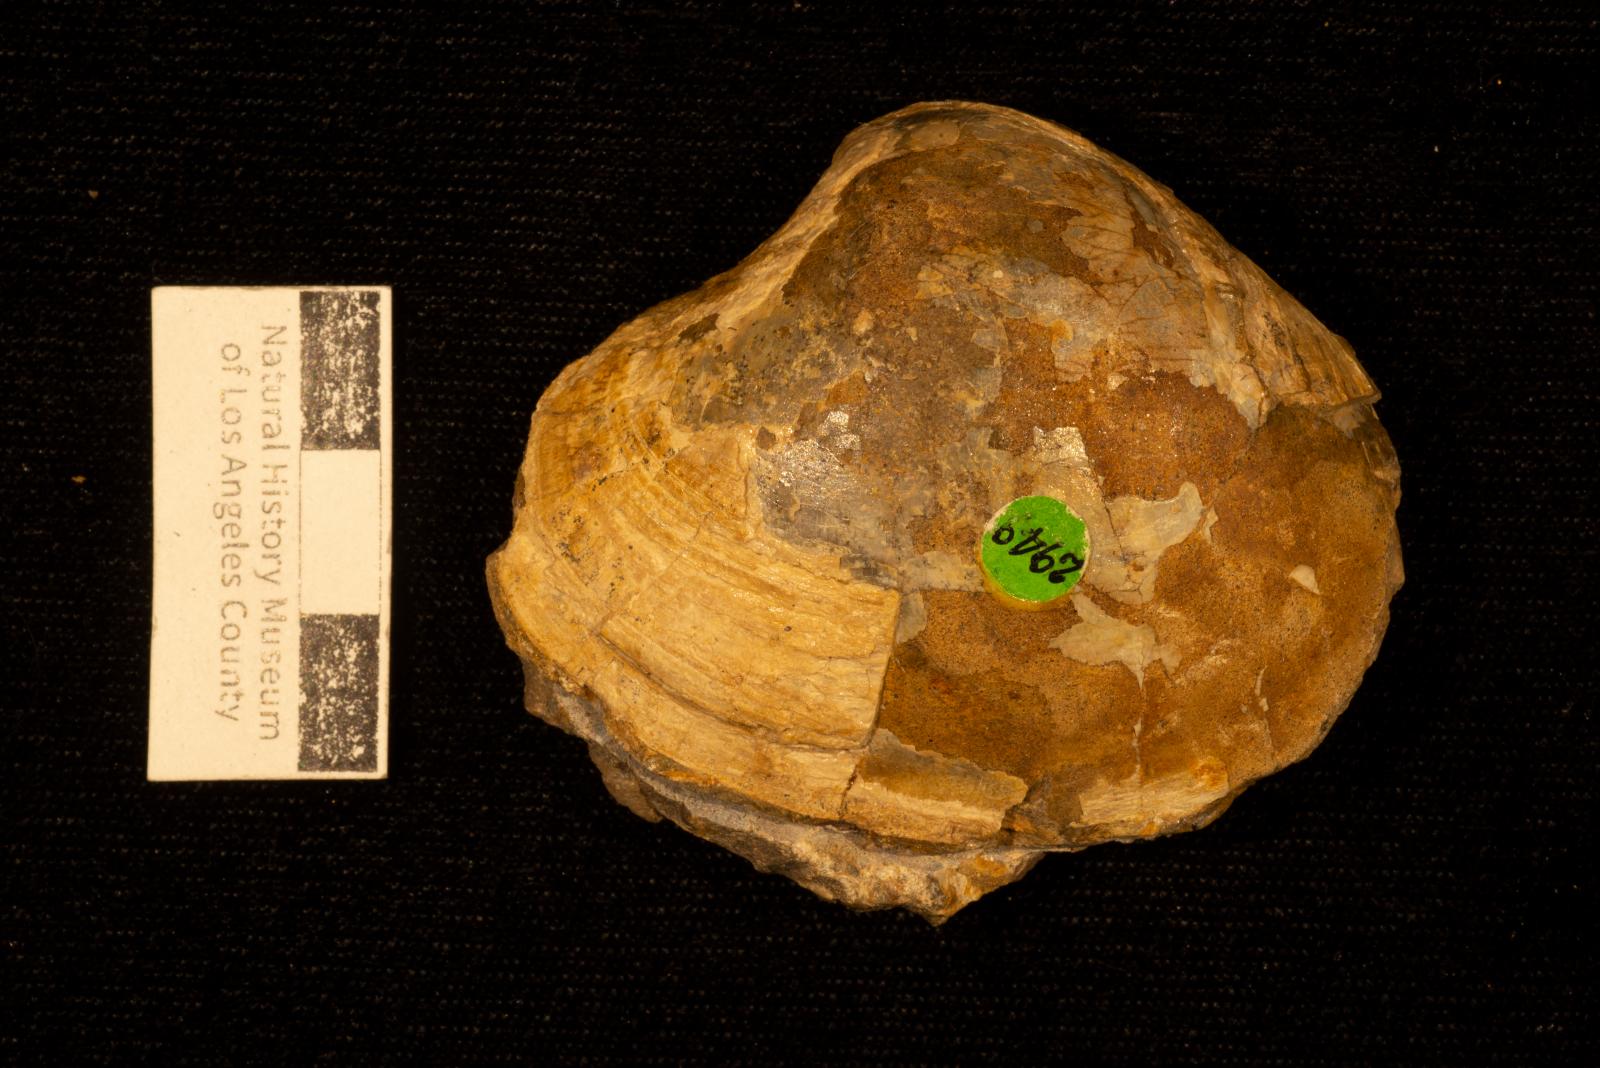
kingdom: Animalia
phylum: Mollusca
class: Bivalvia
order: Venerida
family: Veneridae
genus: Calva
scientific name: Calva Cucullaea bowersiana
